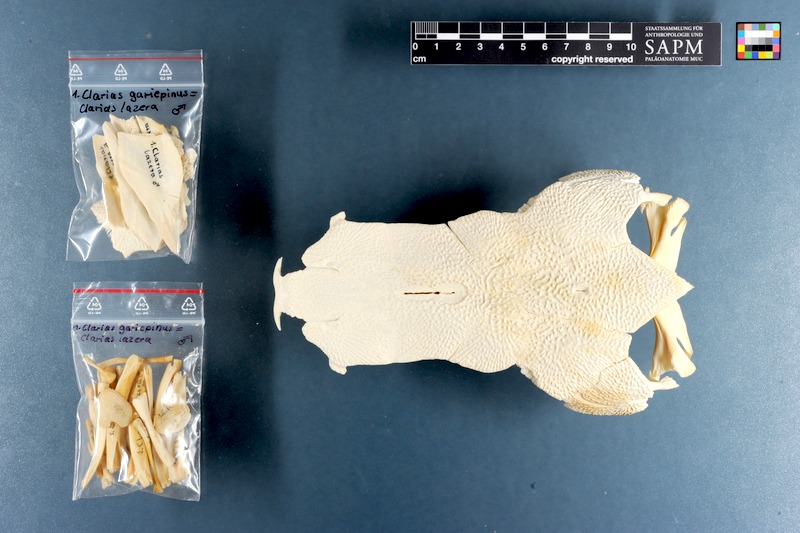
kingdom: Animalia
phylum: Chordata
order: Siluriformes
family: Clariidae
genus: Clarias
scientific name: Clarias gariepinus
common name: African catfish
